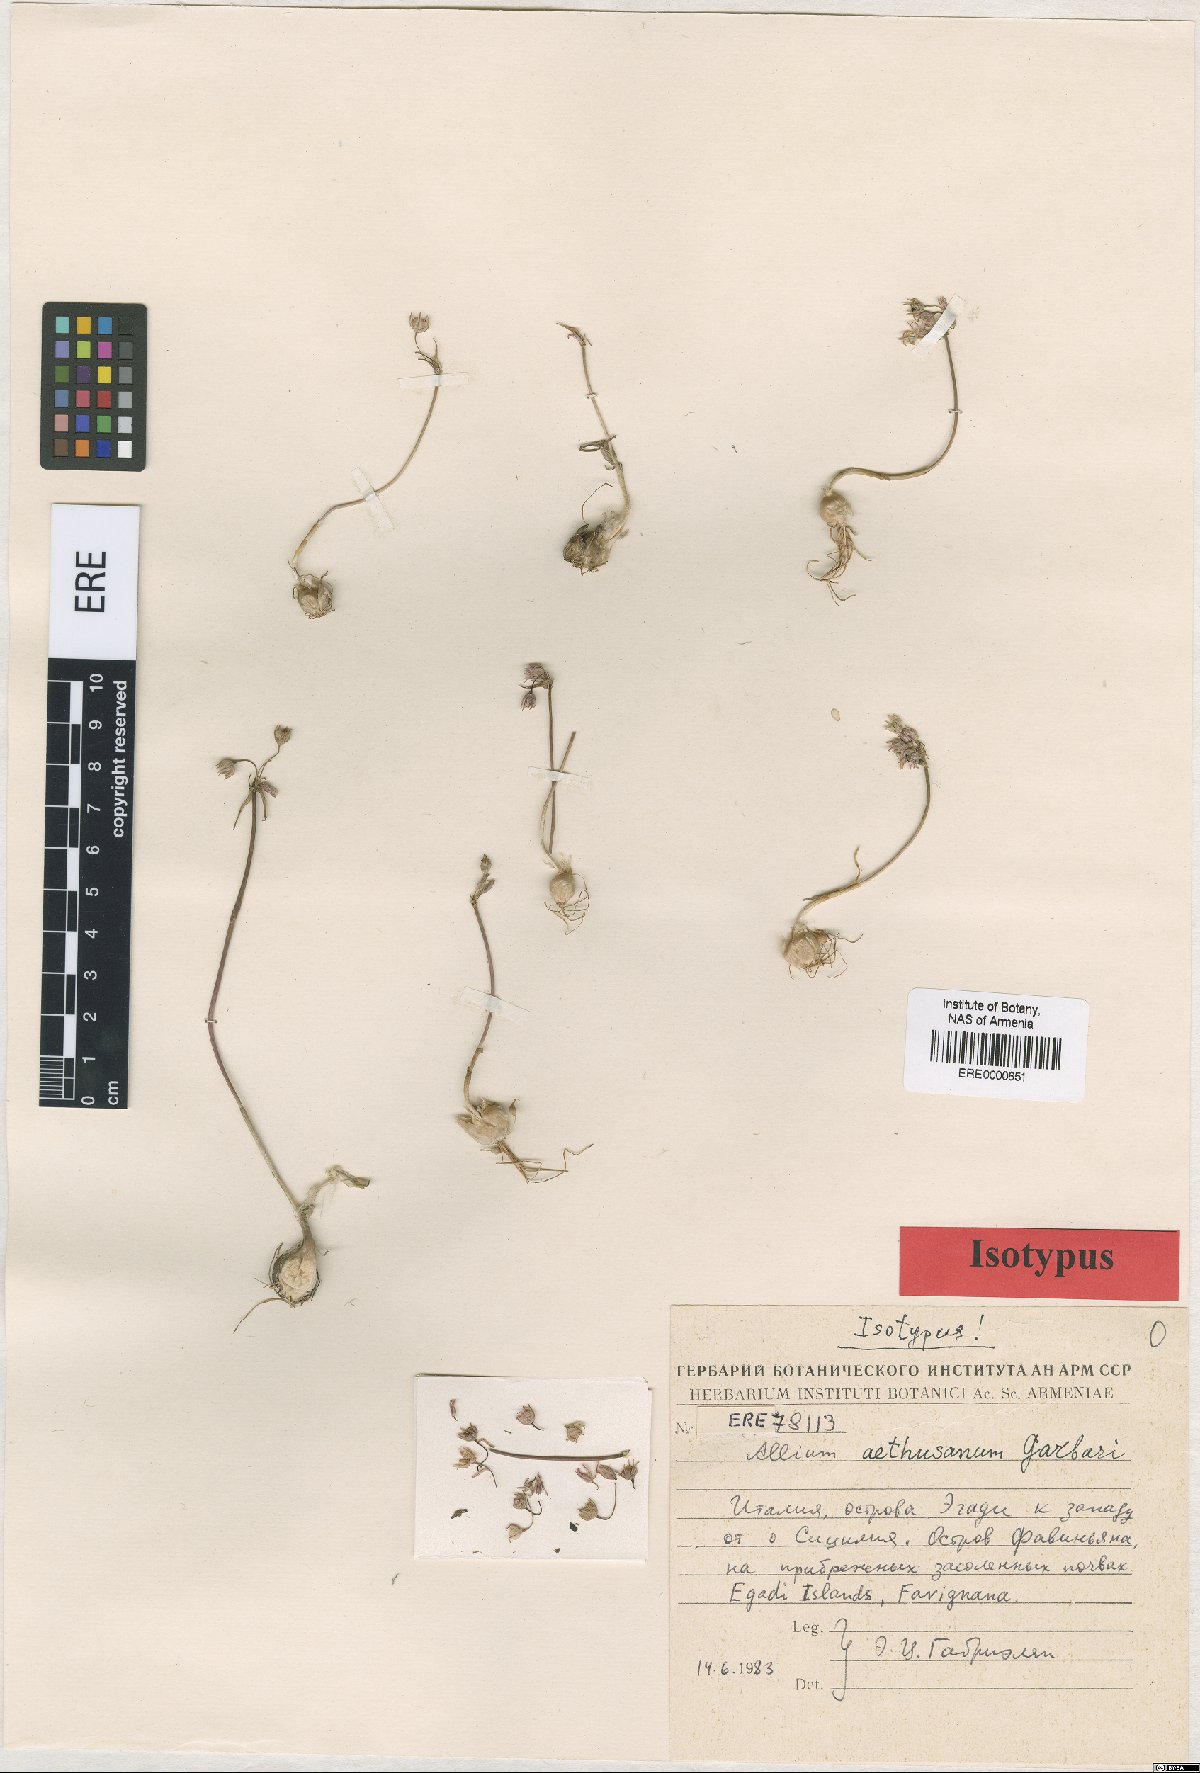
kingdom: Plantae
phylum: Tracheophyta
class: Liliopsida
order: Asparagales
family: Amaryllidaceae
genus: Allium
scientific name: Allium lehmannii
